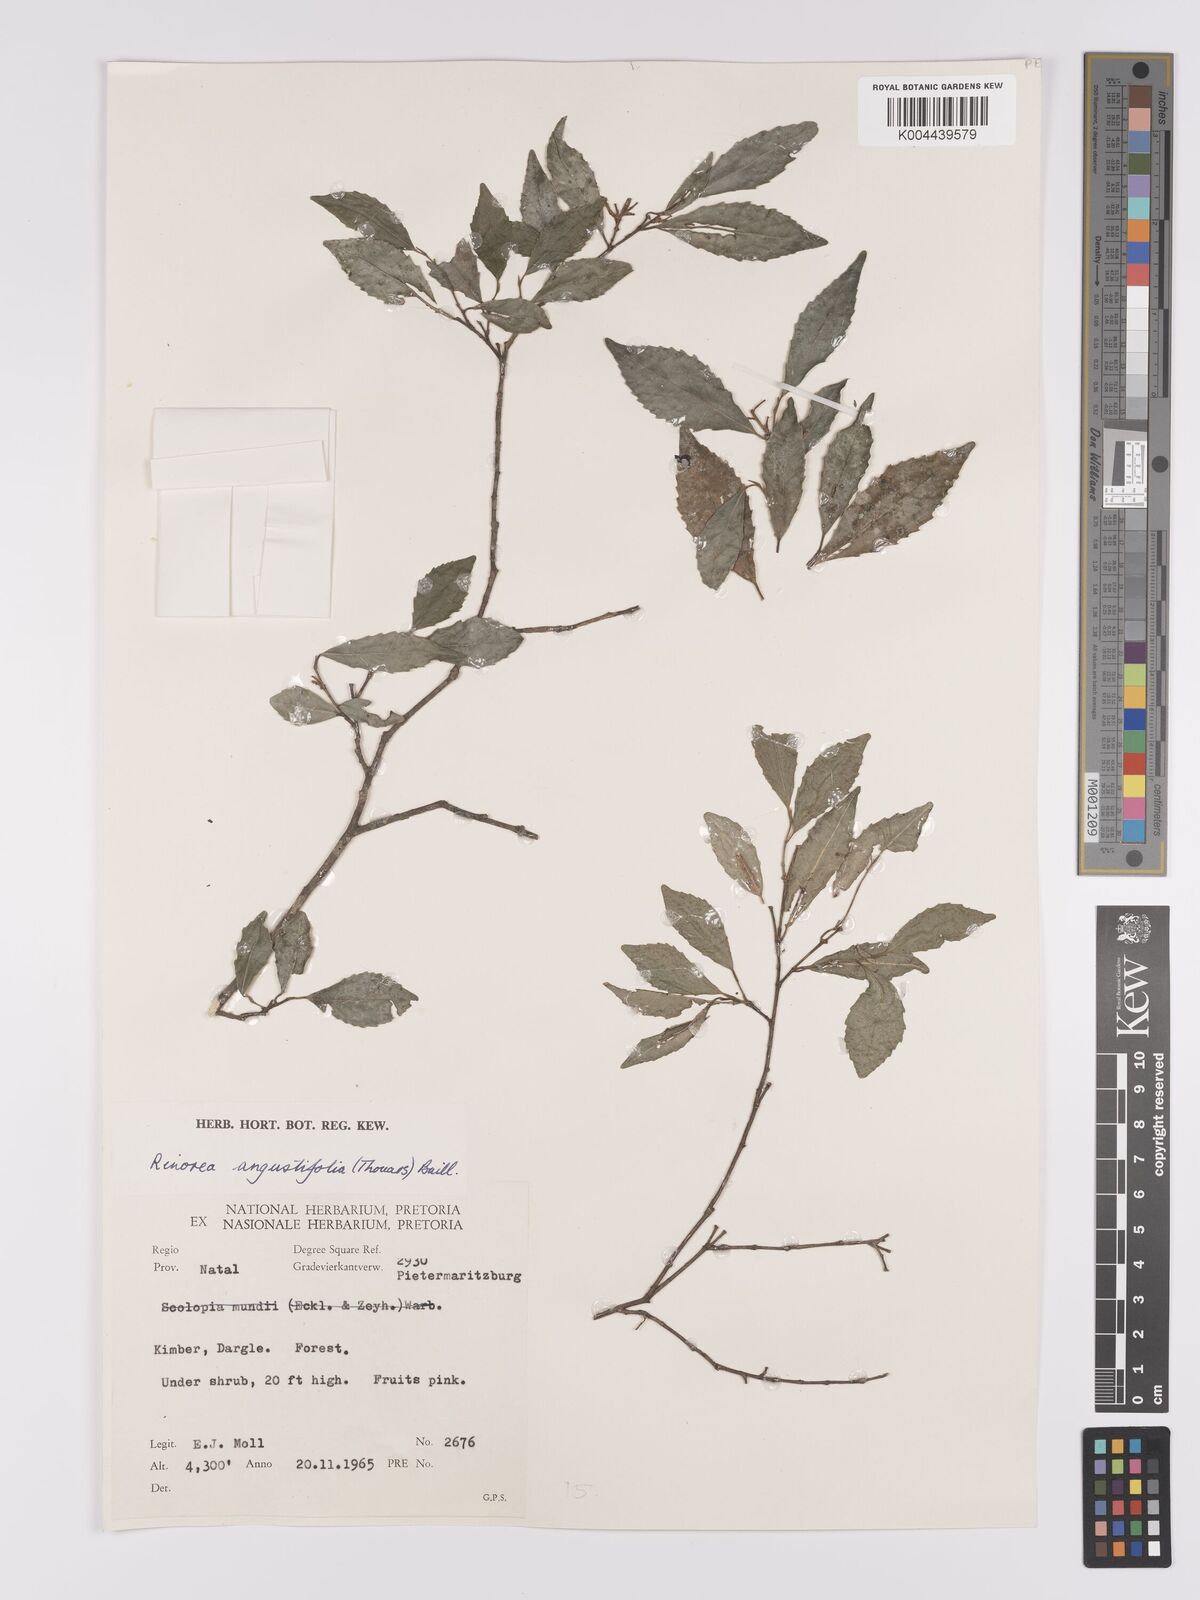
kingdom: Plantae
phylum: Tracheophyta
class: Magnoliopsida
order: Malpighiales
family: Violaceae
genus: Rinorea
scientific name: Rinorea angustifolia
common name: White violet-bush
